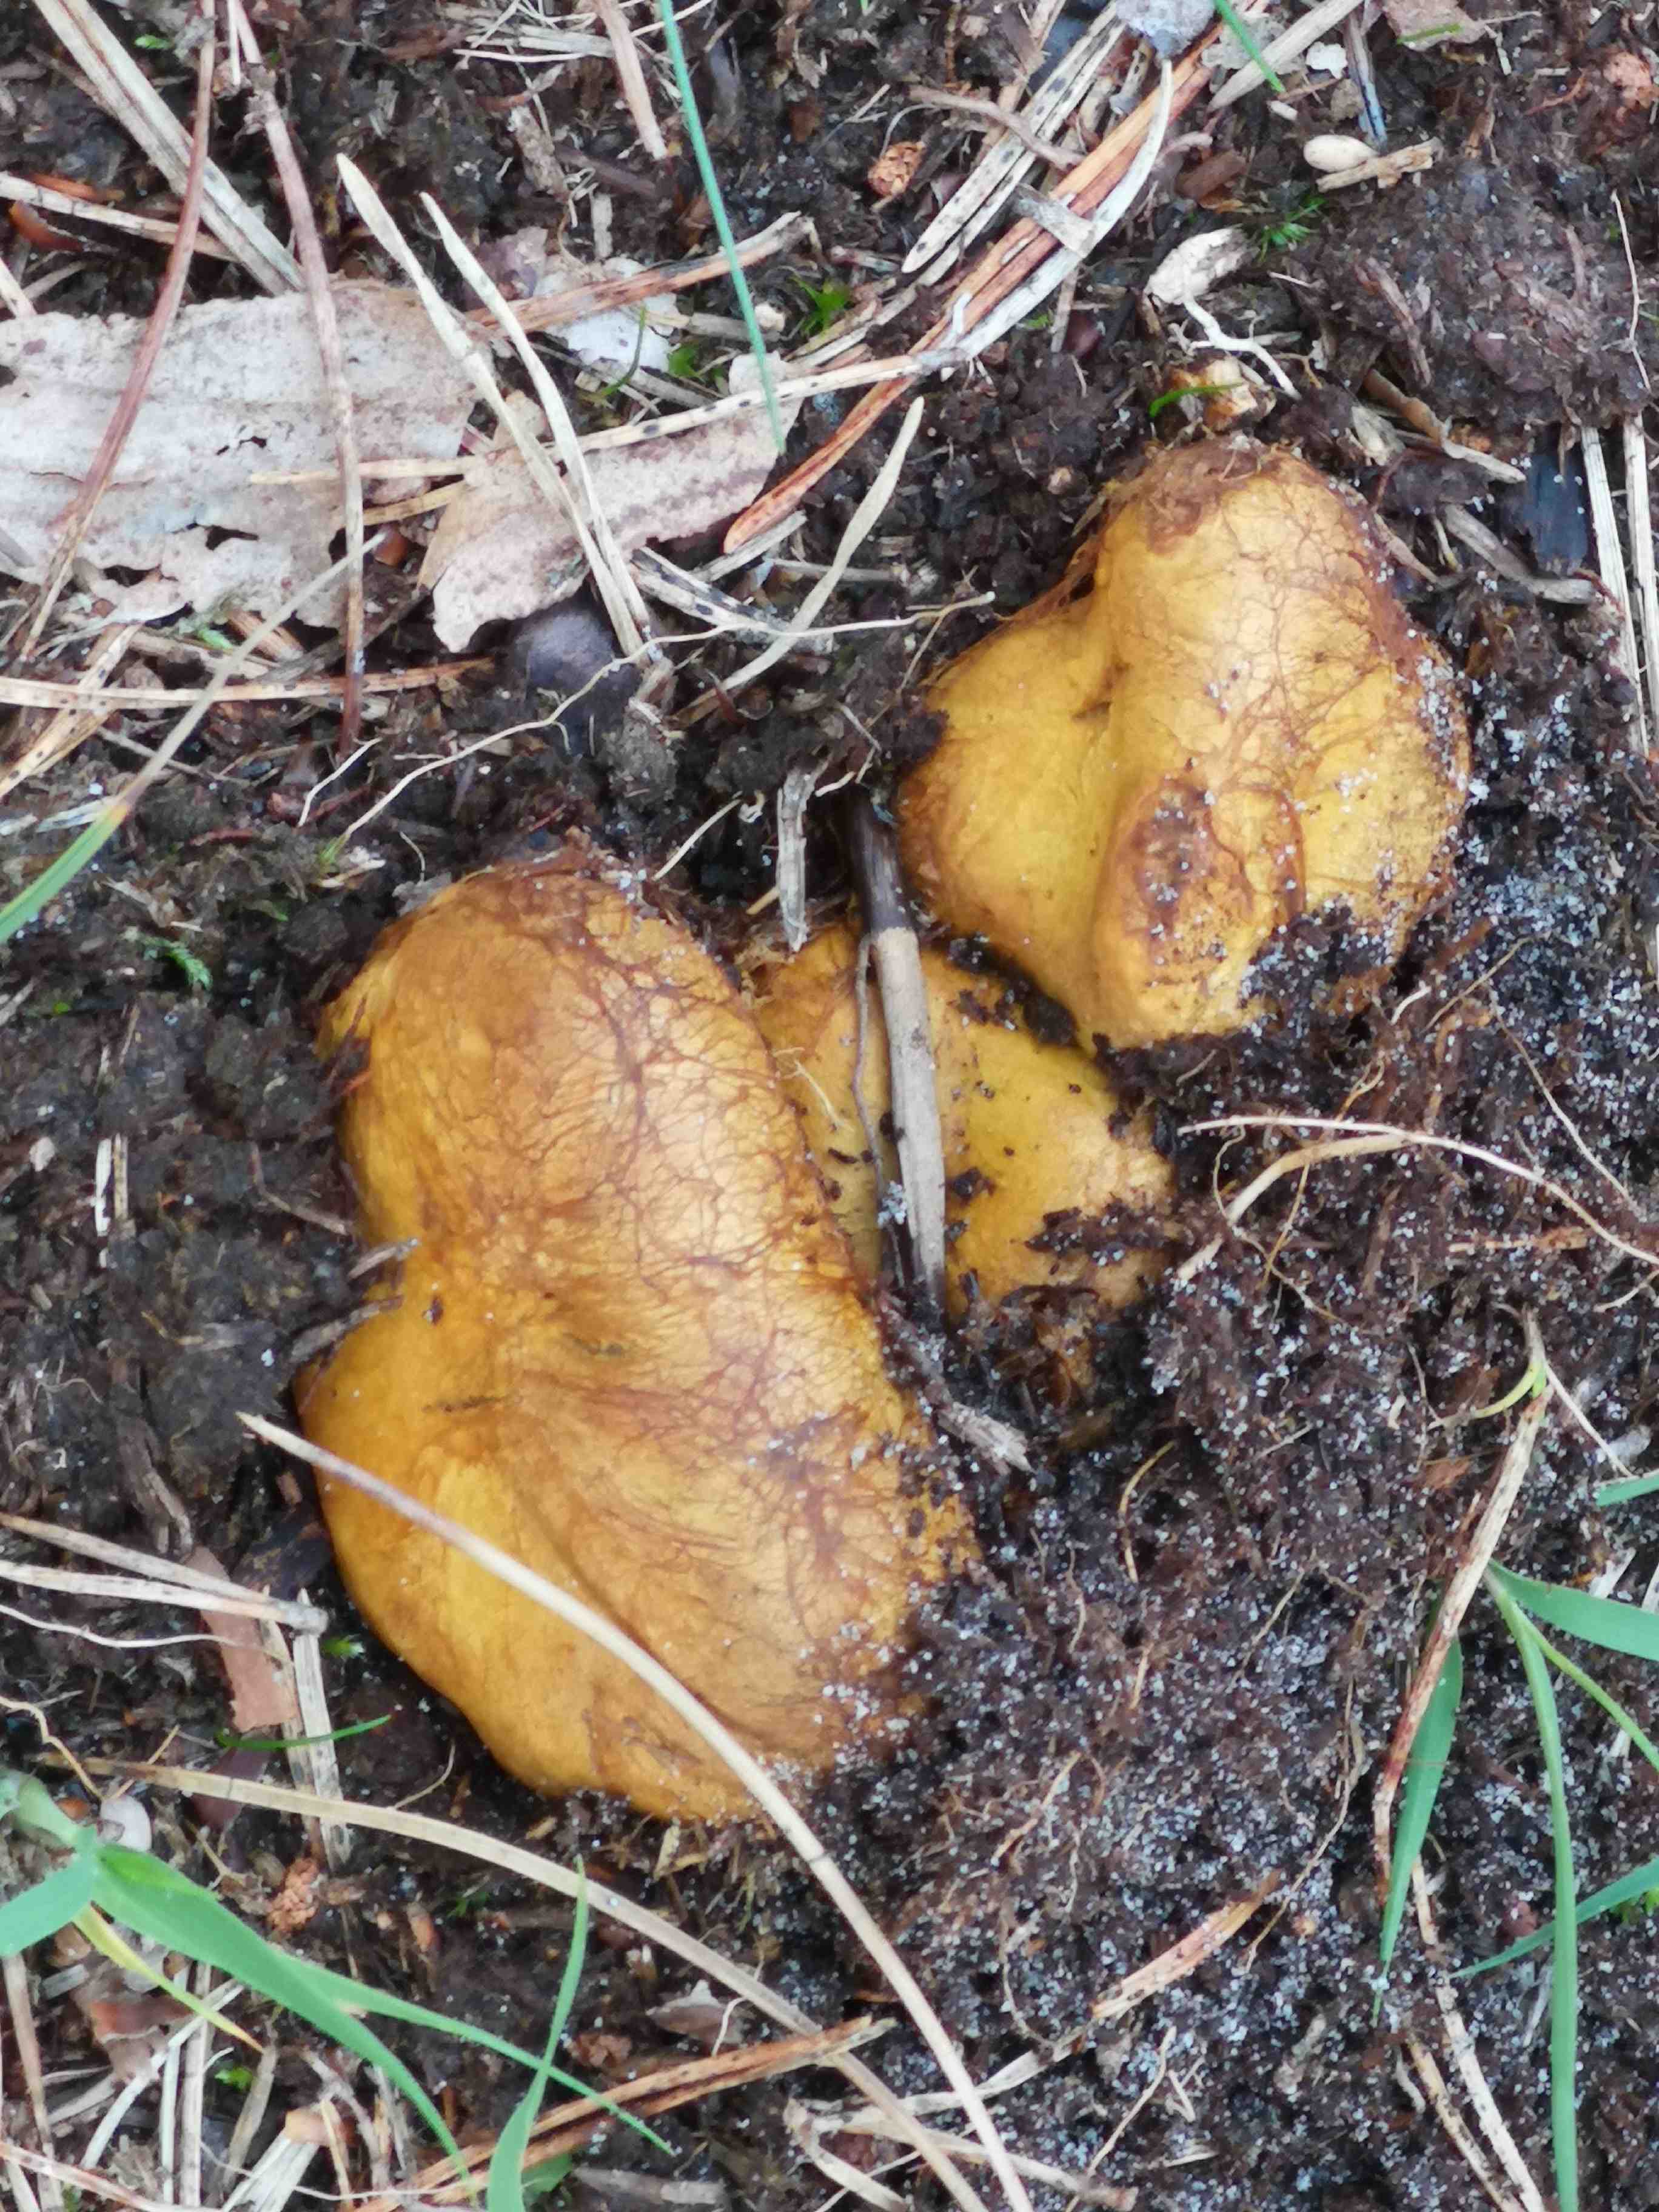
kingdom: Fungi
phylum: Basidiomycota
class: Agaricomycetes
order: Boletales
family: Rhizopogonaceae
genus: Rhizopogon
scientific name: Rhizopogon obtextus
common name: gul skægtrøffel
